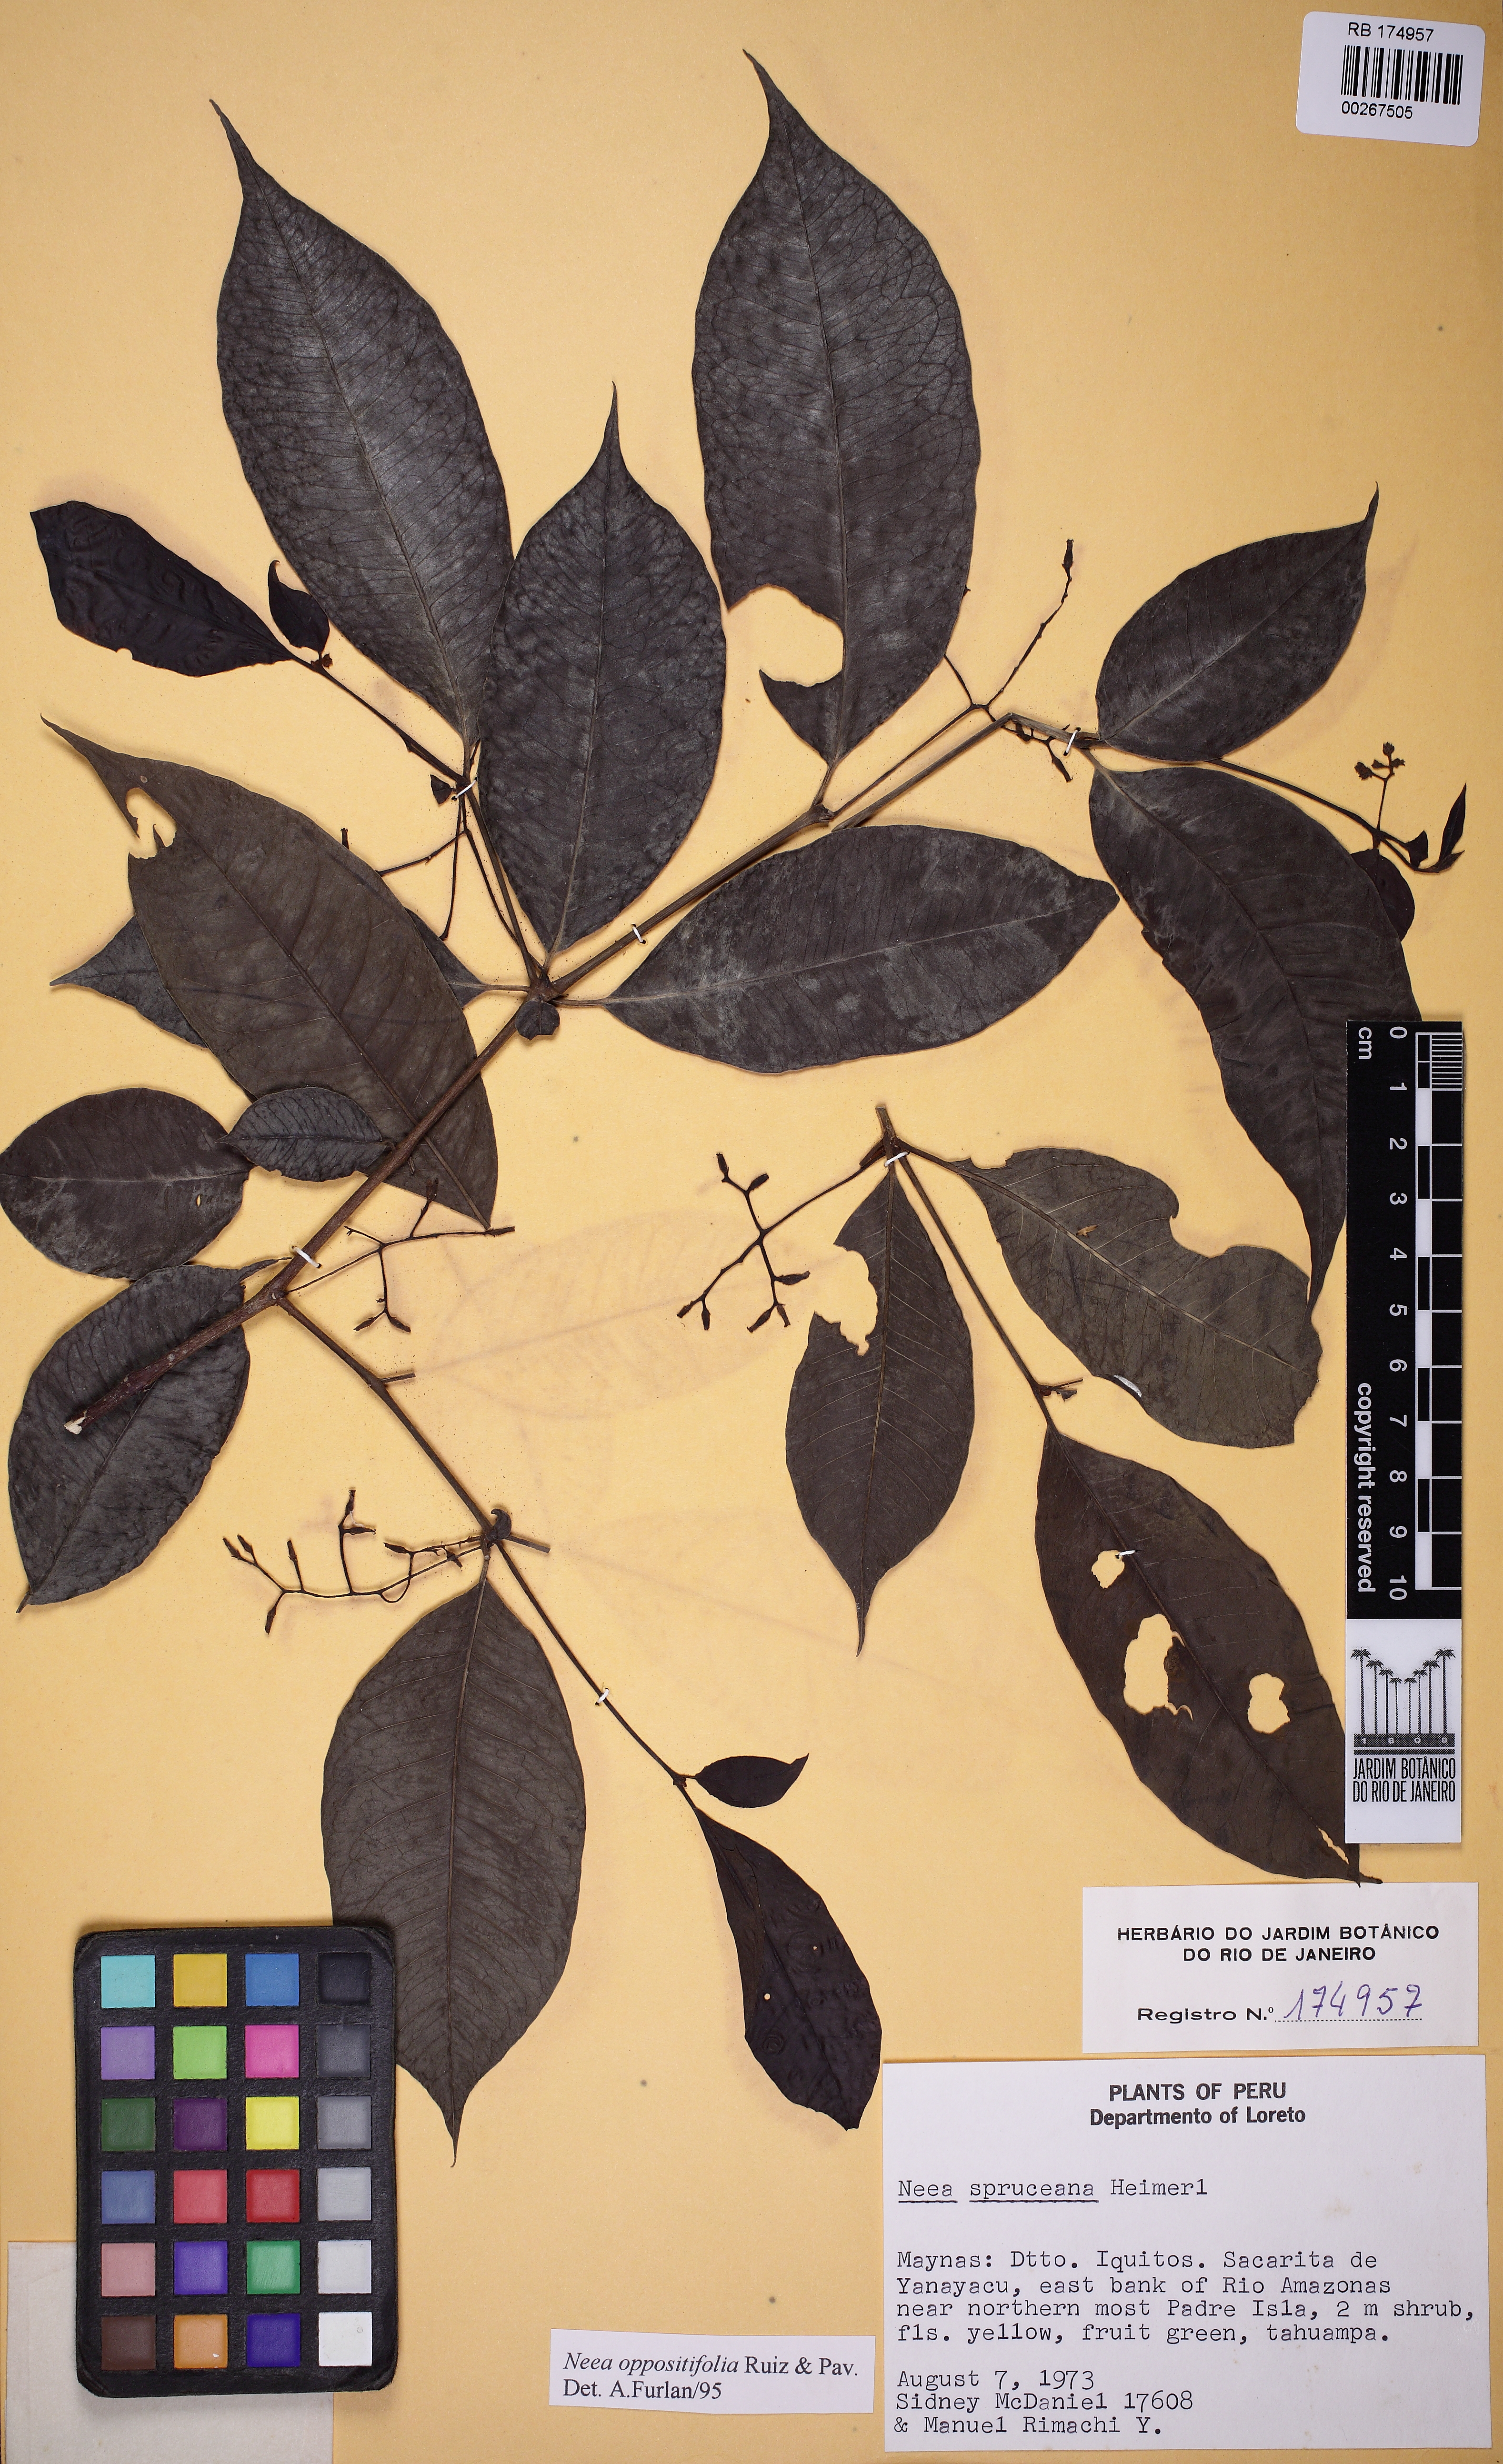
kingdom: Plantae
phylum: Tracheophyta
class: Magnoliopsida
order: Caryophyllales
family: Nyctaginaceae
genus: Neea
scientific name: Neea oppositifolia
